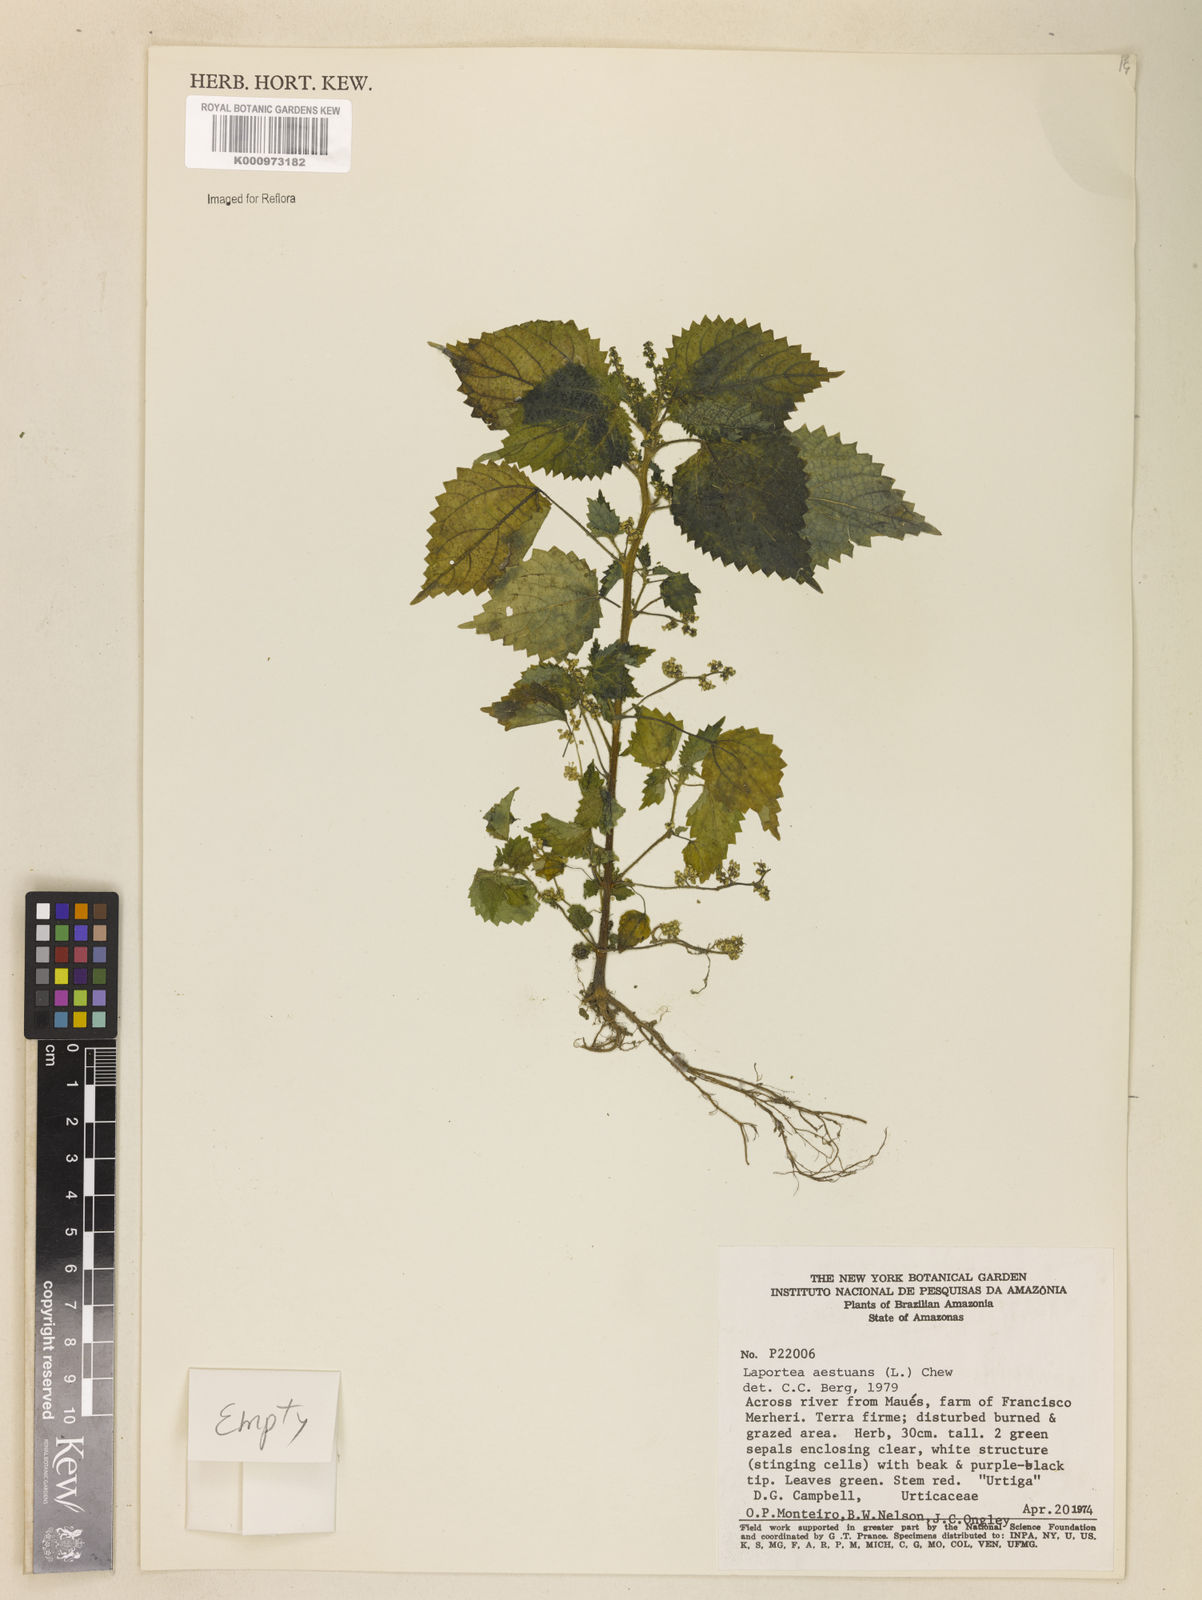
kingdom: Plantae
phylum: Tracheophyta
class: Magnoliopsida
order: Rosales
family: Urticaceae
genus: Laportea
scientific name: Laportea aestuans
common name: West indian woodnettle
